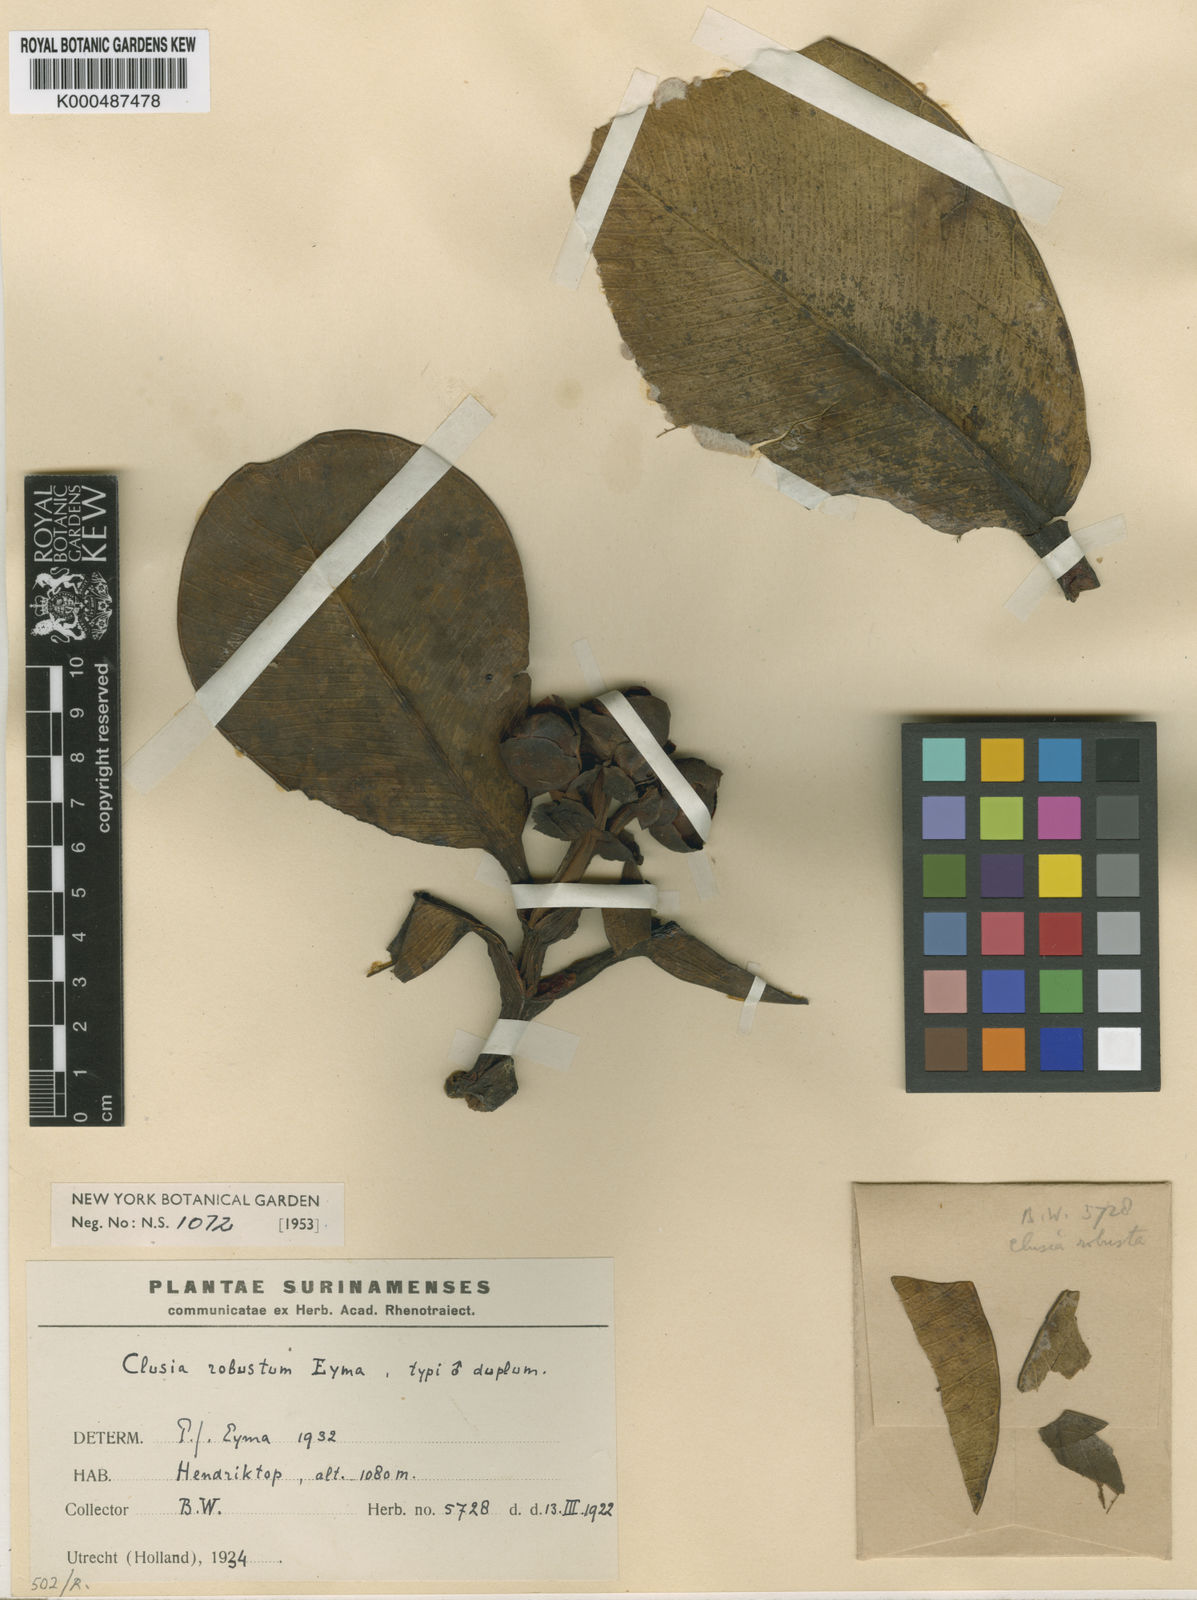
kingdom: Plantae
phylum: Tracheophyta
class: Magnoliopsida
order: Malpighiales
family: Clusiaceae
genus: Clusia
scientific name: Clusia robusta
